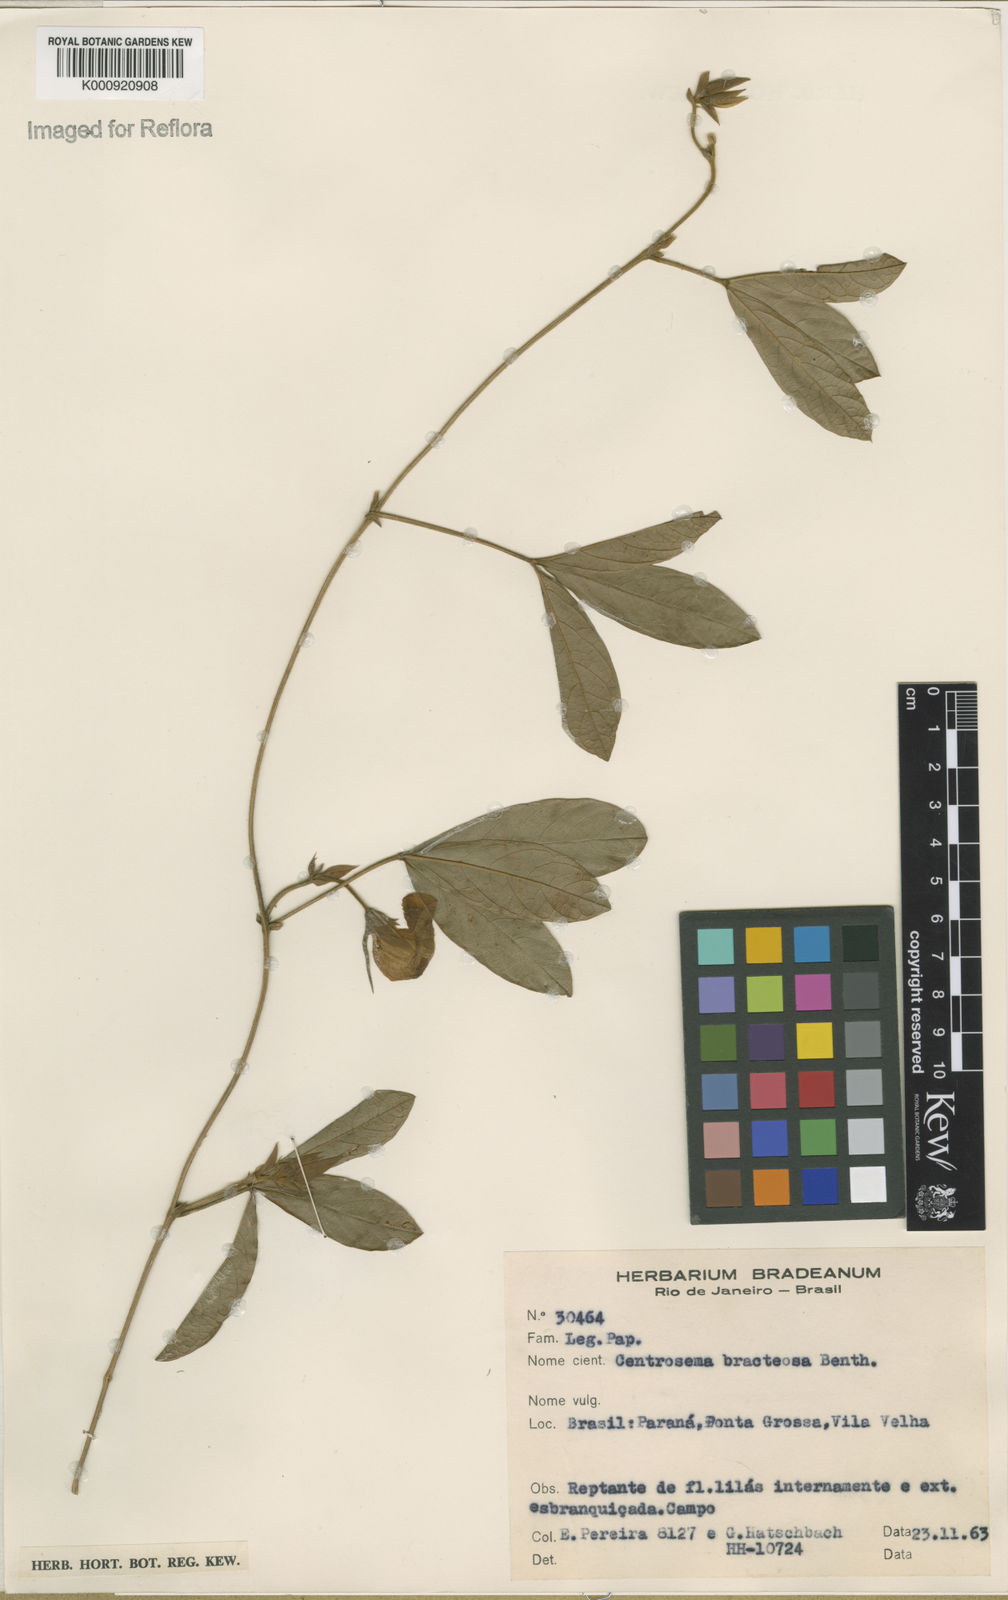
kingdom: Plantae
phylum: Tracheophyta
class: Magnoliopsida
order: Fabales
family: Fabaceae
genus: Centrosema
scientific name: Centrosema bracteosum
